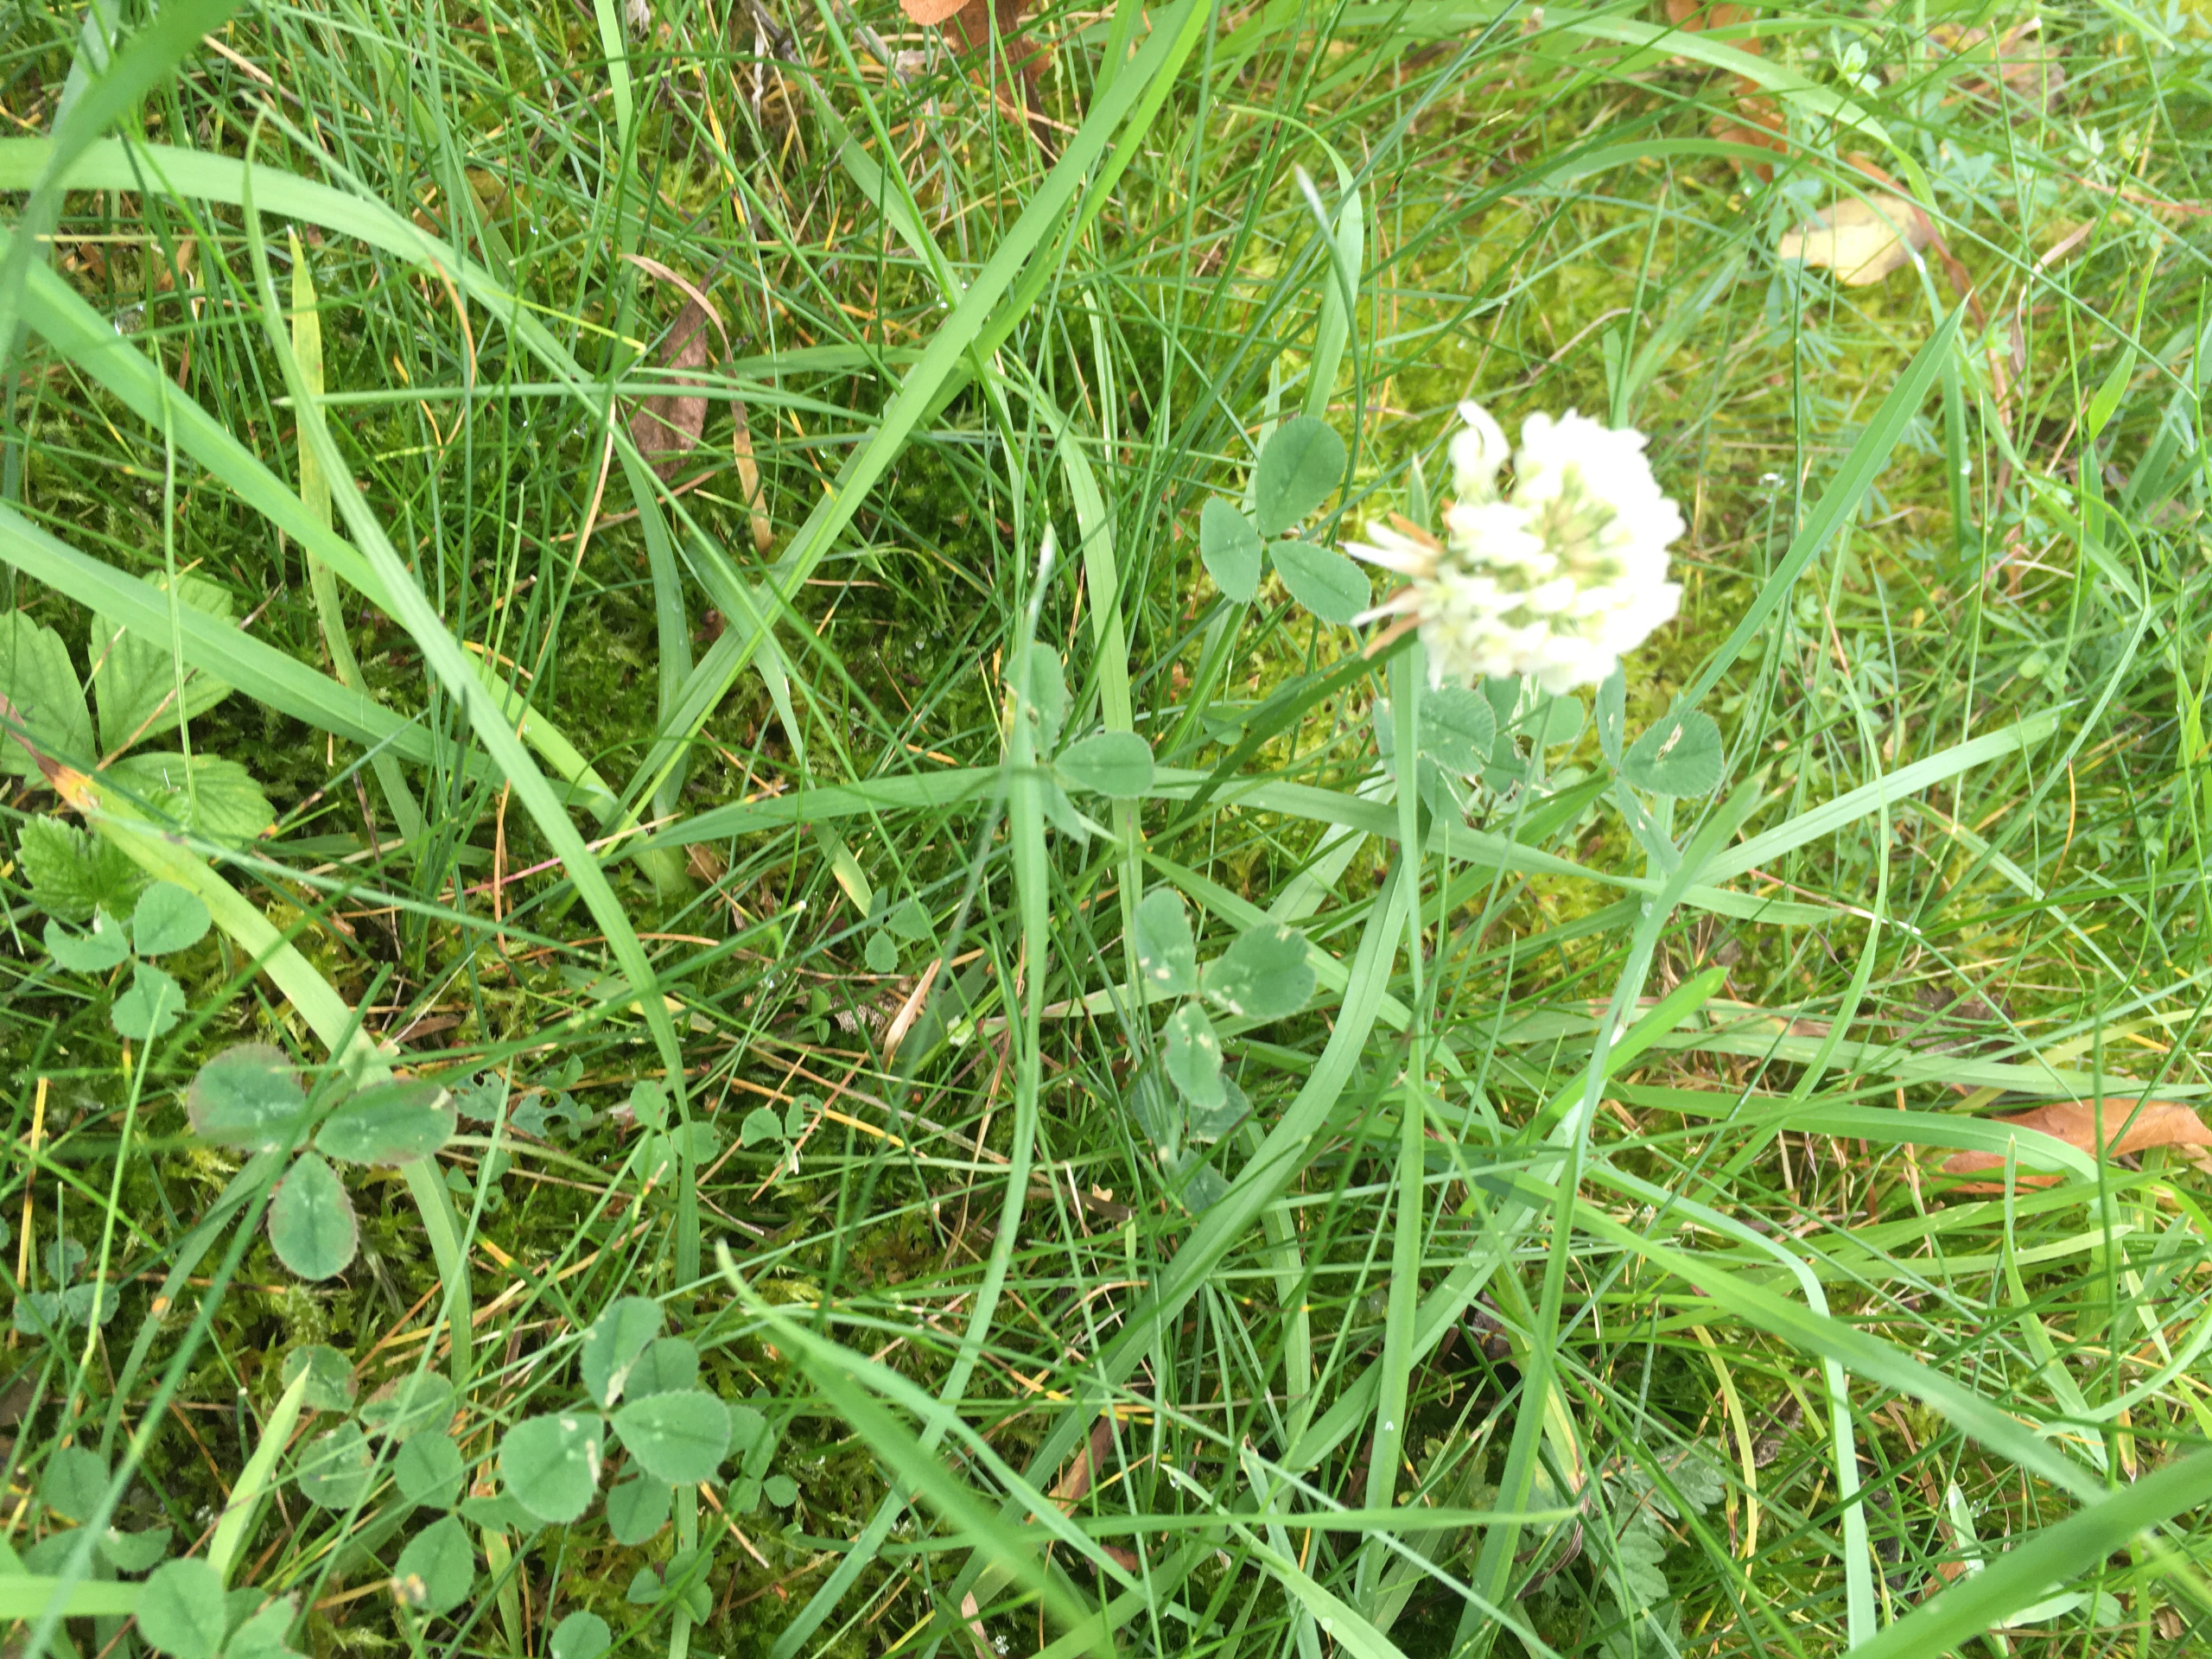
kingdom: Plantae
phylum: Tracheophyta
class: Magnoliopsida
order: Fabales
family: Fabaceae
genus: Trifolium
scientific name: Trifolium repens
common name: Hvid-kløver
